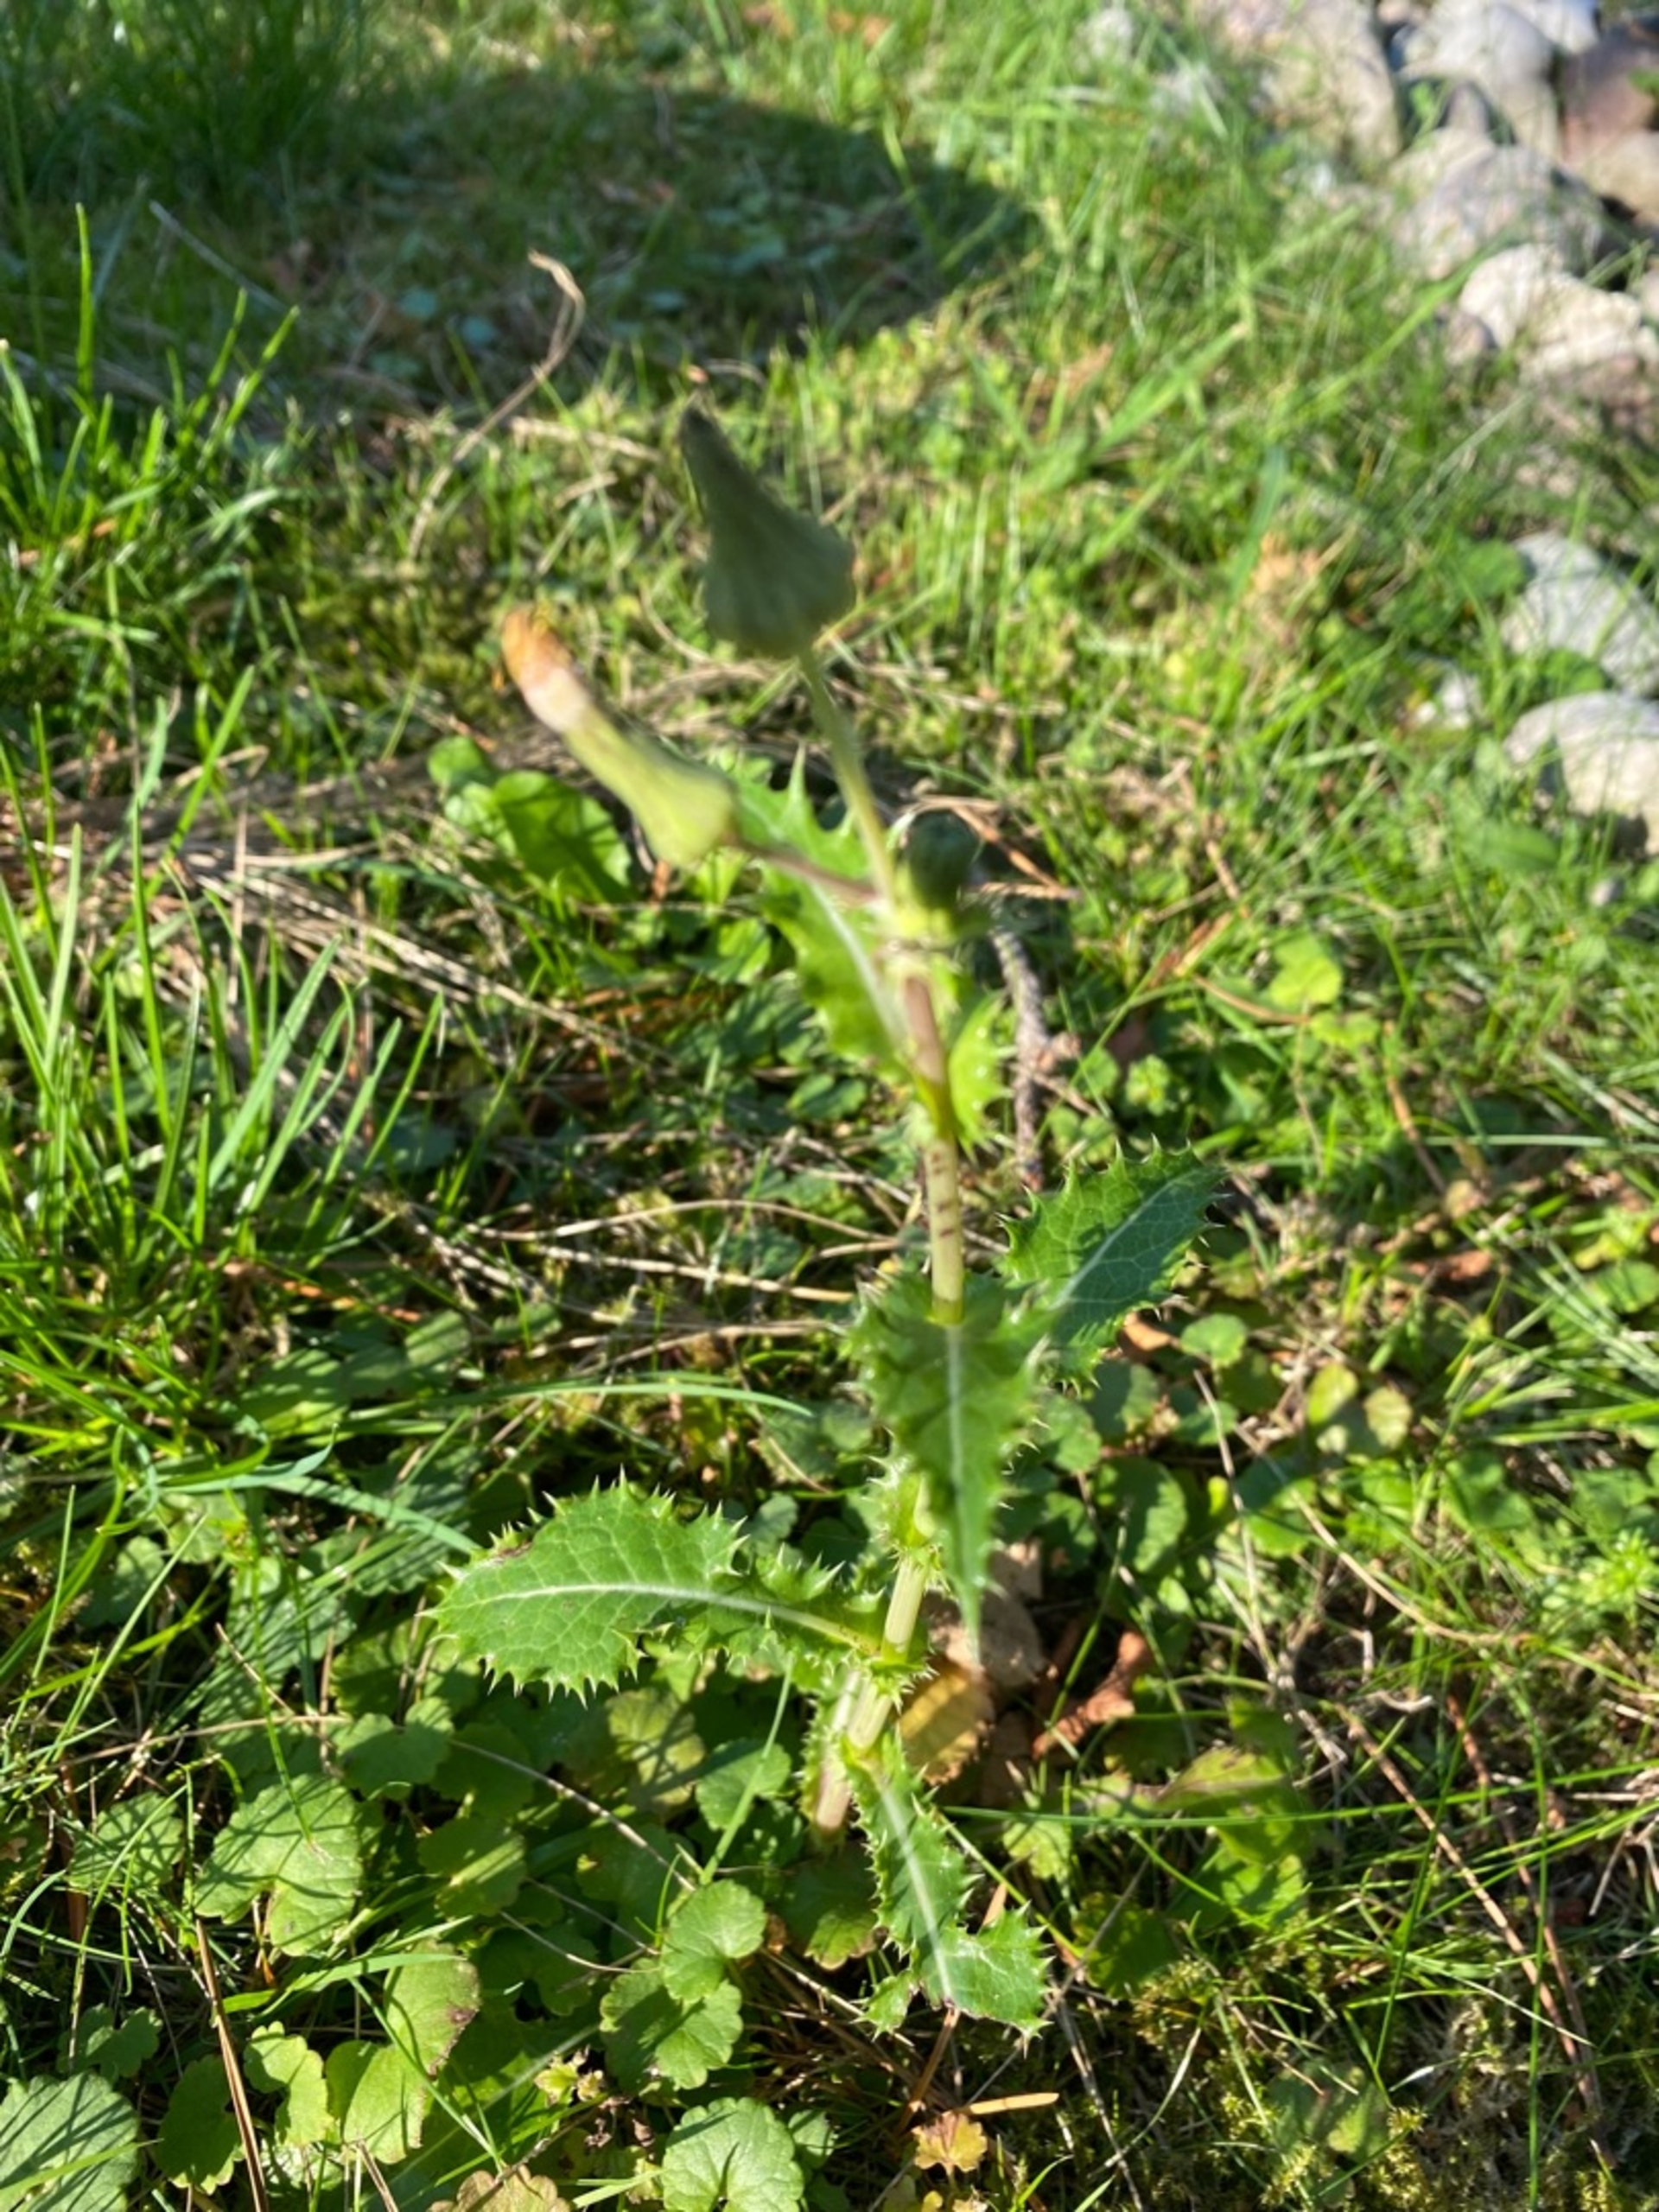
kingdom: Plantae
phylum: Tracheophyta
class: Magnoliopsida
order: Asterales
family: Asteraceae
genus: Sonchus
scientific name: Sonchus asper
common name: Ru svinemælk
